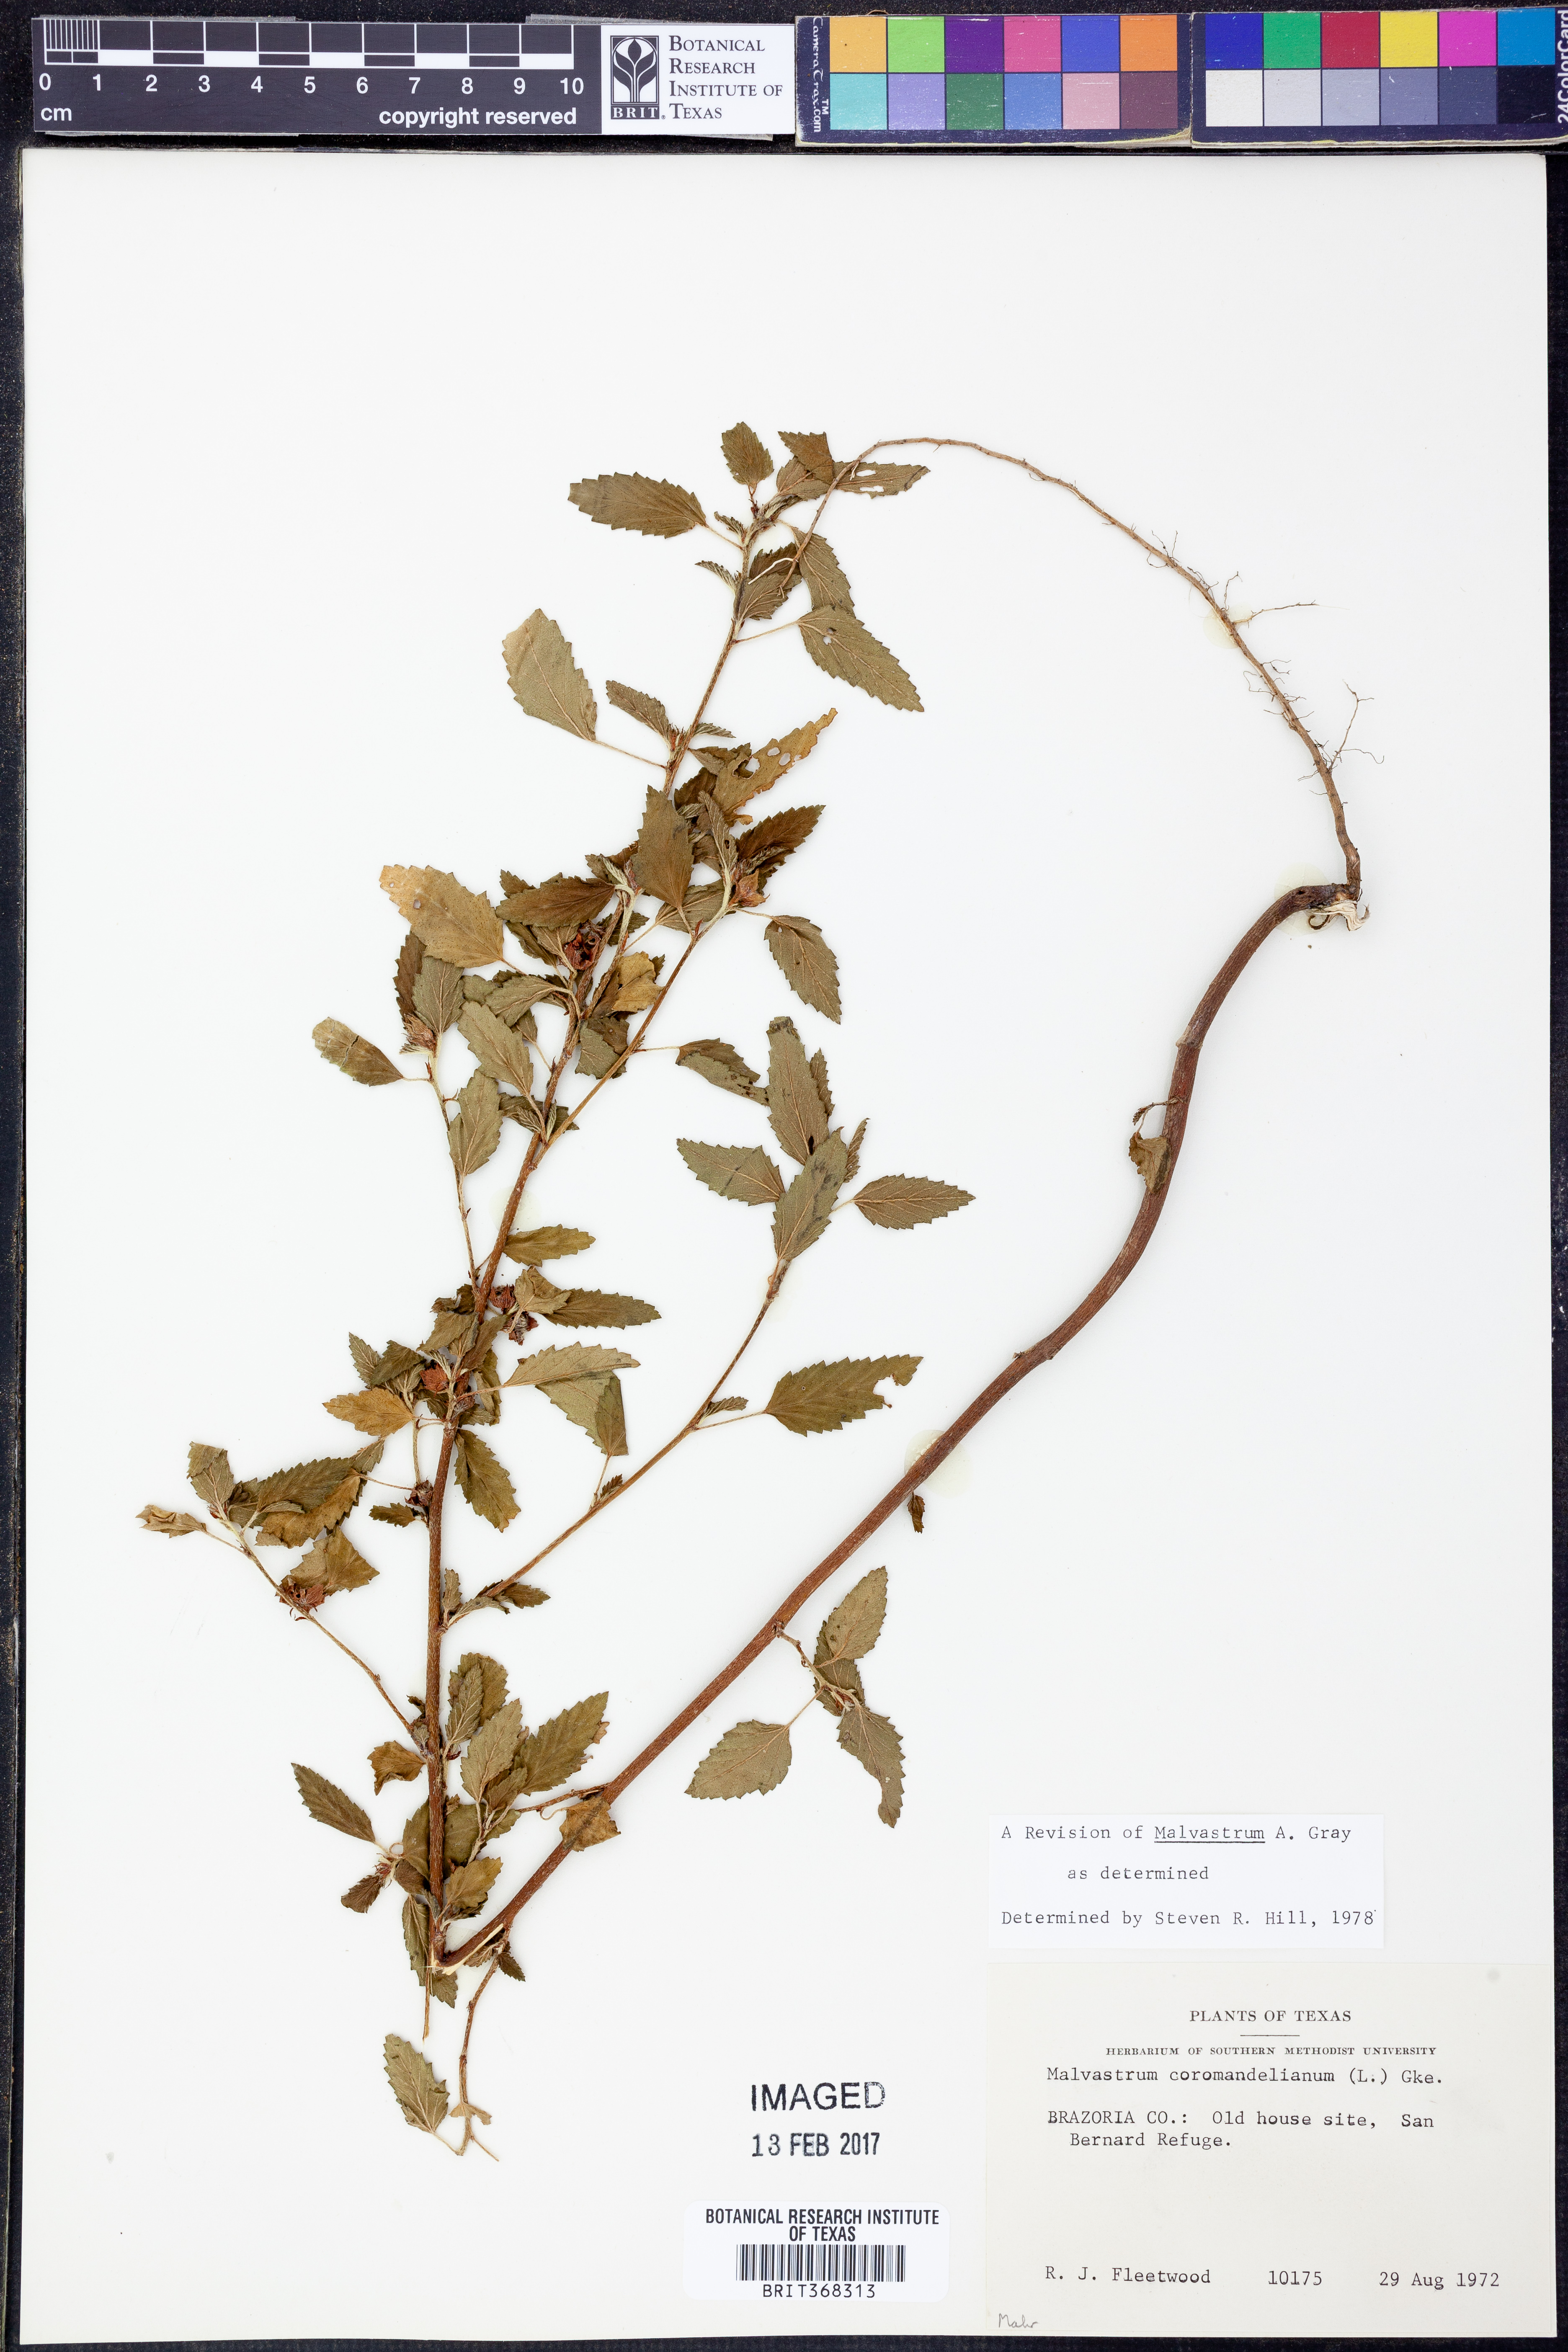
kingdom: Plantae
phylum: Tracheophyta
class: Magnoliopsida
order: Malvales
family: Malvaceae
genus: Malvastrum
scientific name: Malvastrum coromandelianum
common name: Threelobe false mallow
